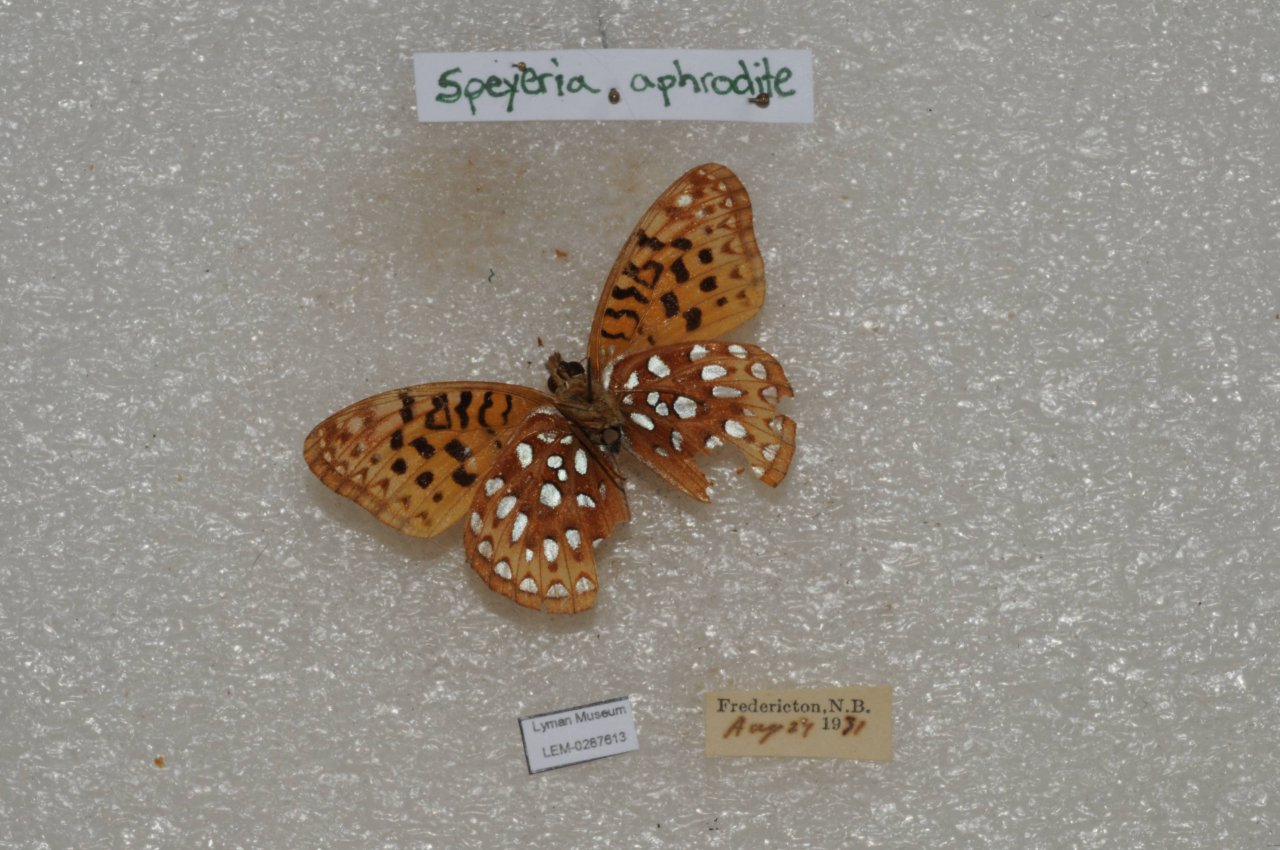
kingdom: Animalia
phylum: Arthropoda
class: Insecta
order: Lepidoptera
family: Nymphalidae
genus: Speyeria
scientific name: Speyeria aphrodite
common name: Aphrodite Fritillary
